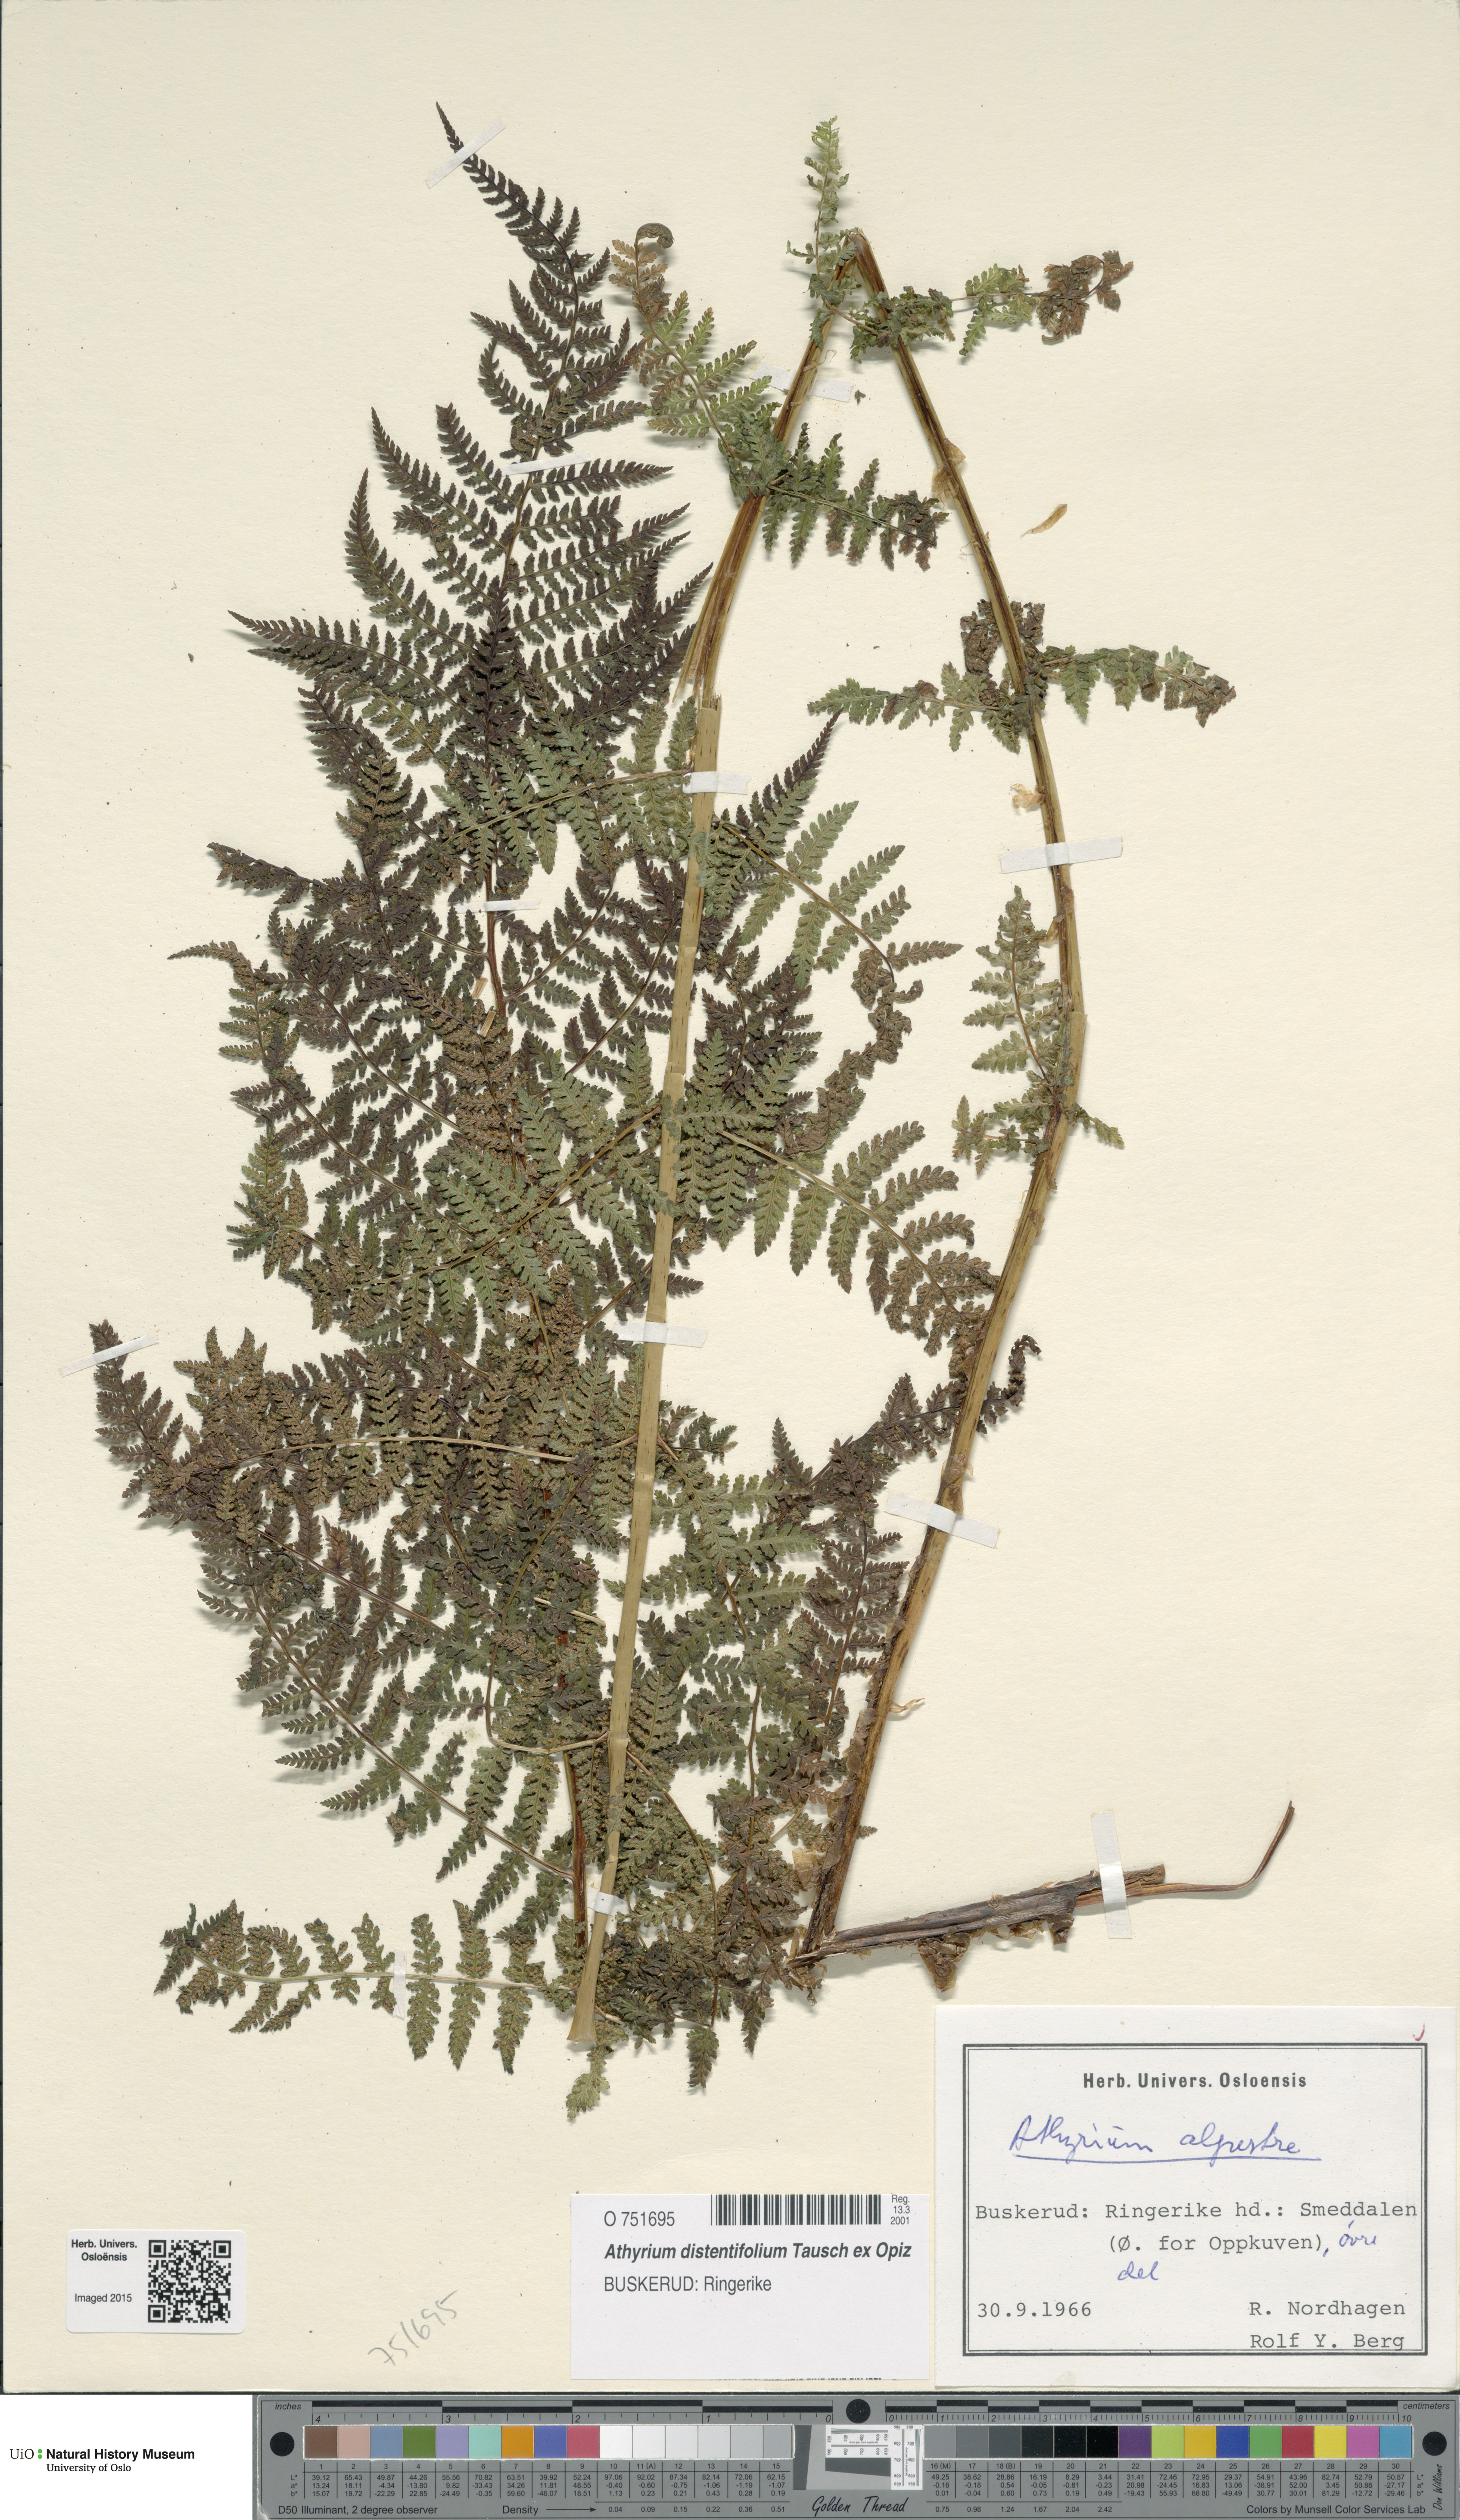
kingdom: Plantae
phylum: Tracheophyta
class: Polypodiopsida
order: Polypodiales
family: Athyriaceae
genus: Pseudathyrium
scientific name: Pseudathyrium alpestre
